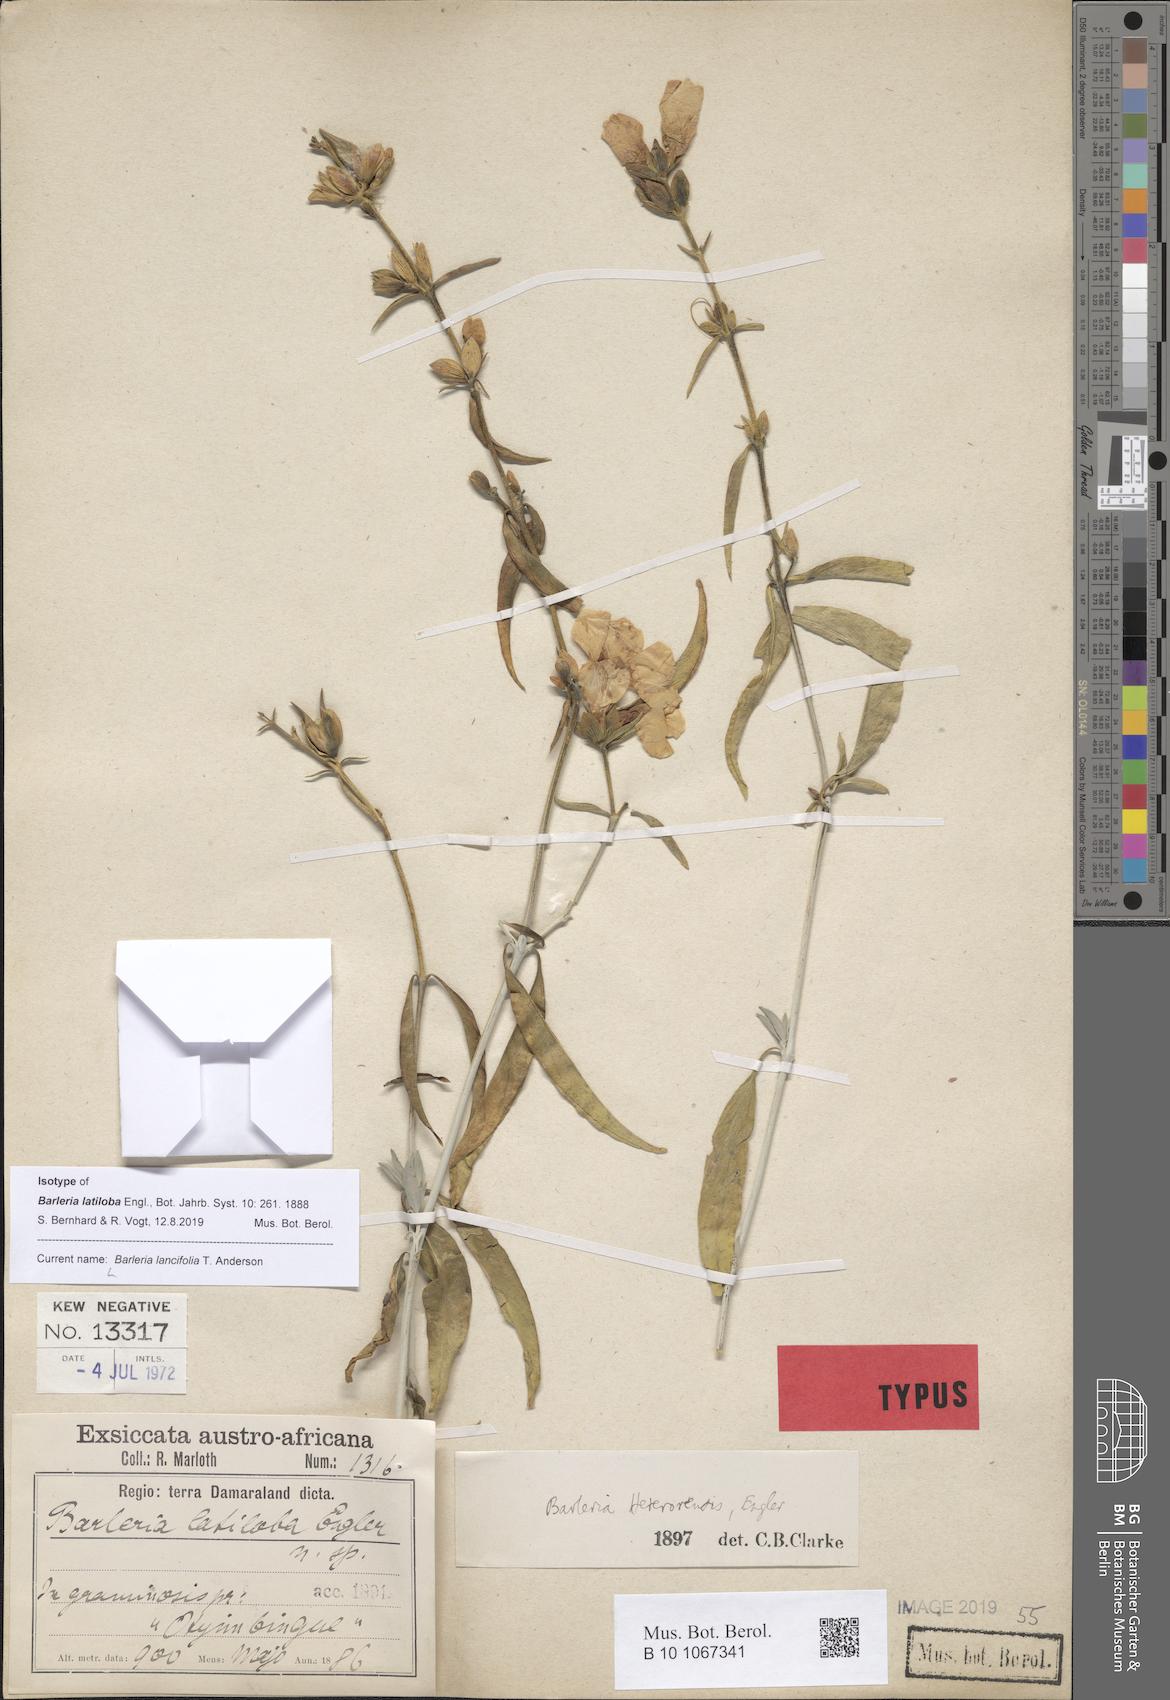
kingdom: Plantae
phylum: Tracheophyta
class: Magnoliopsida
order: Lamiales
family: Acanthaceae
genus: Barleria
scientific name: Barleria lancifolia
